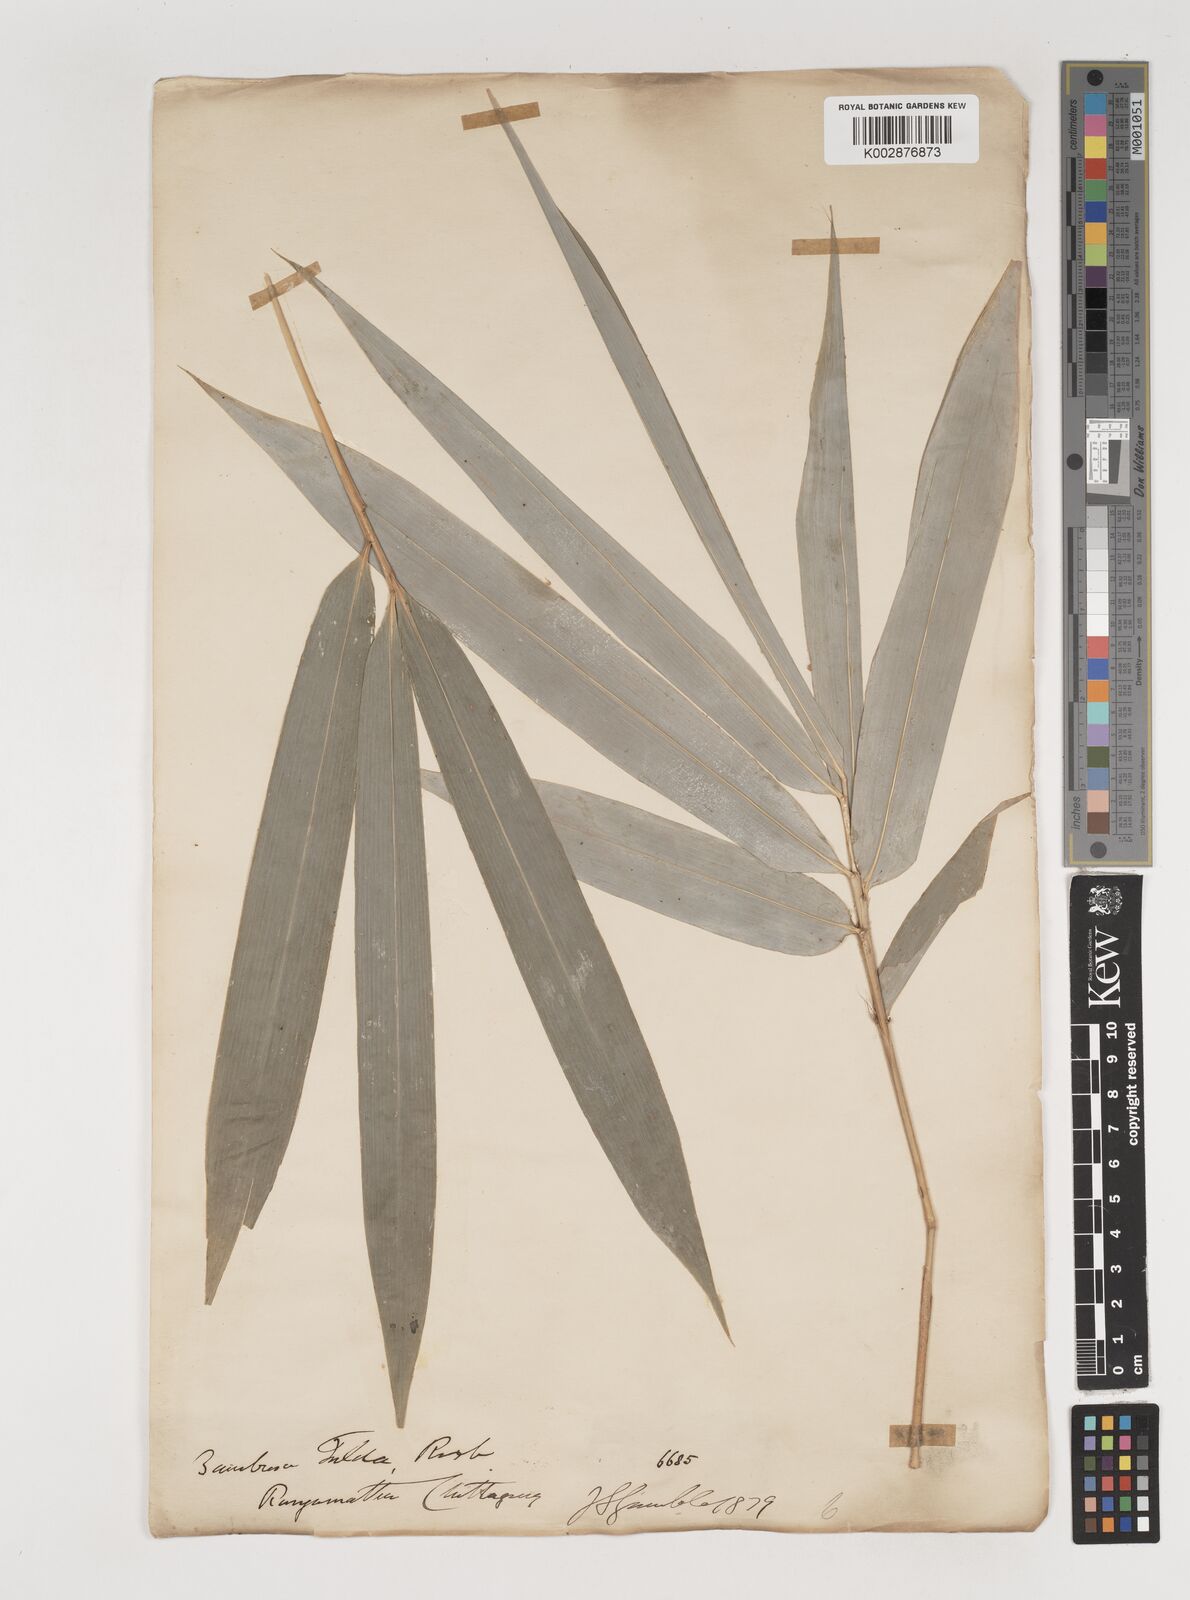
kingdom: Plantae
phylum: Tracheophyta
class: Liliopsida
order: Poales
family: Poaceae
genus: Bambusa
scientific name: Bambusa tuldoides
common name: Verdant bamboo
